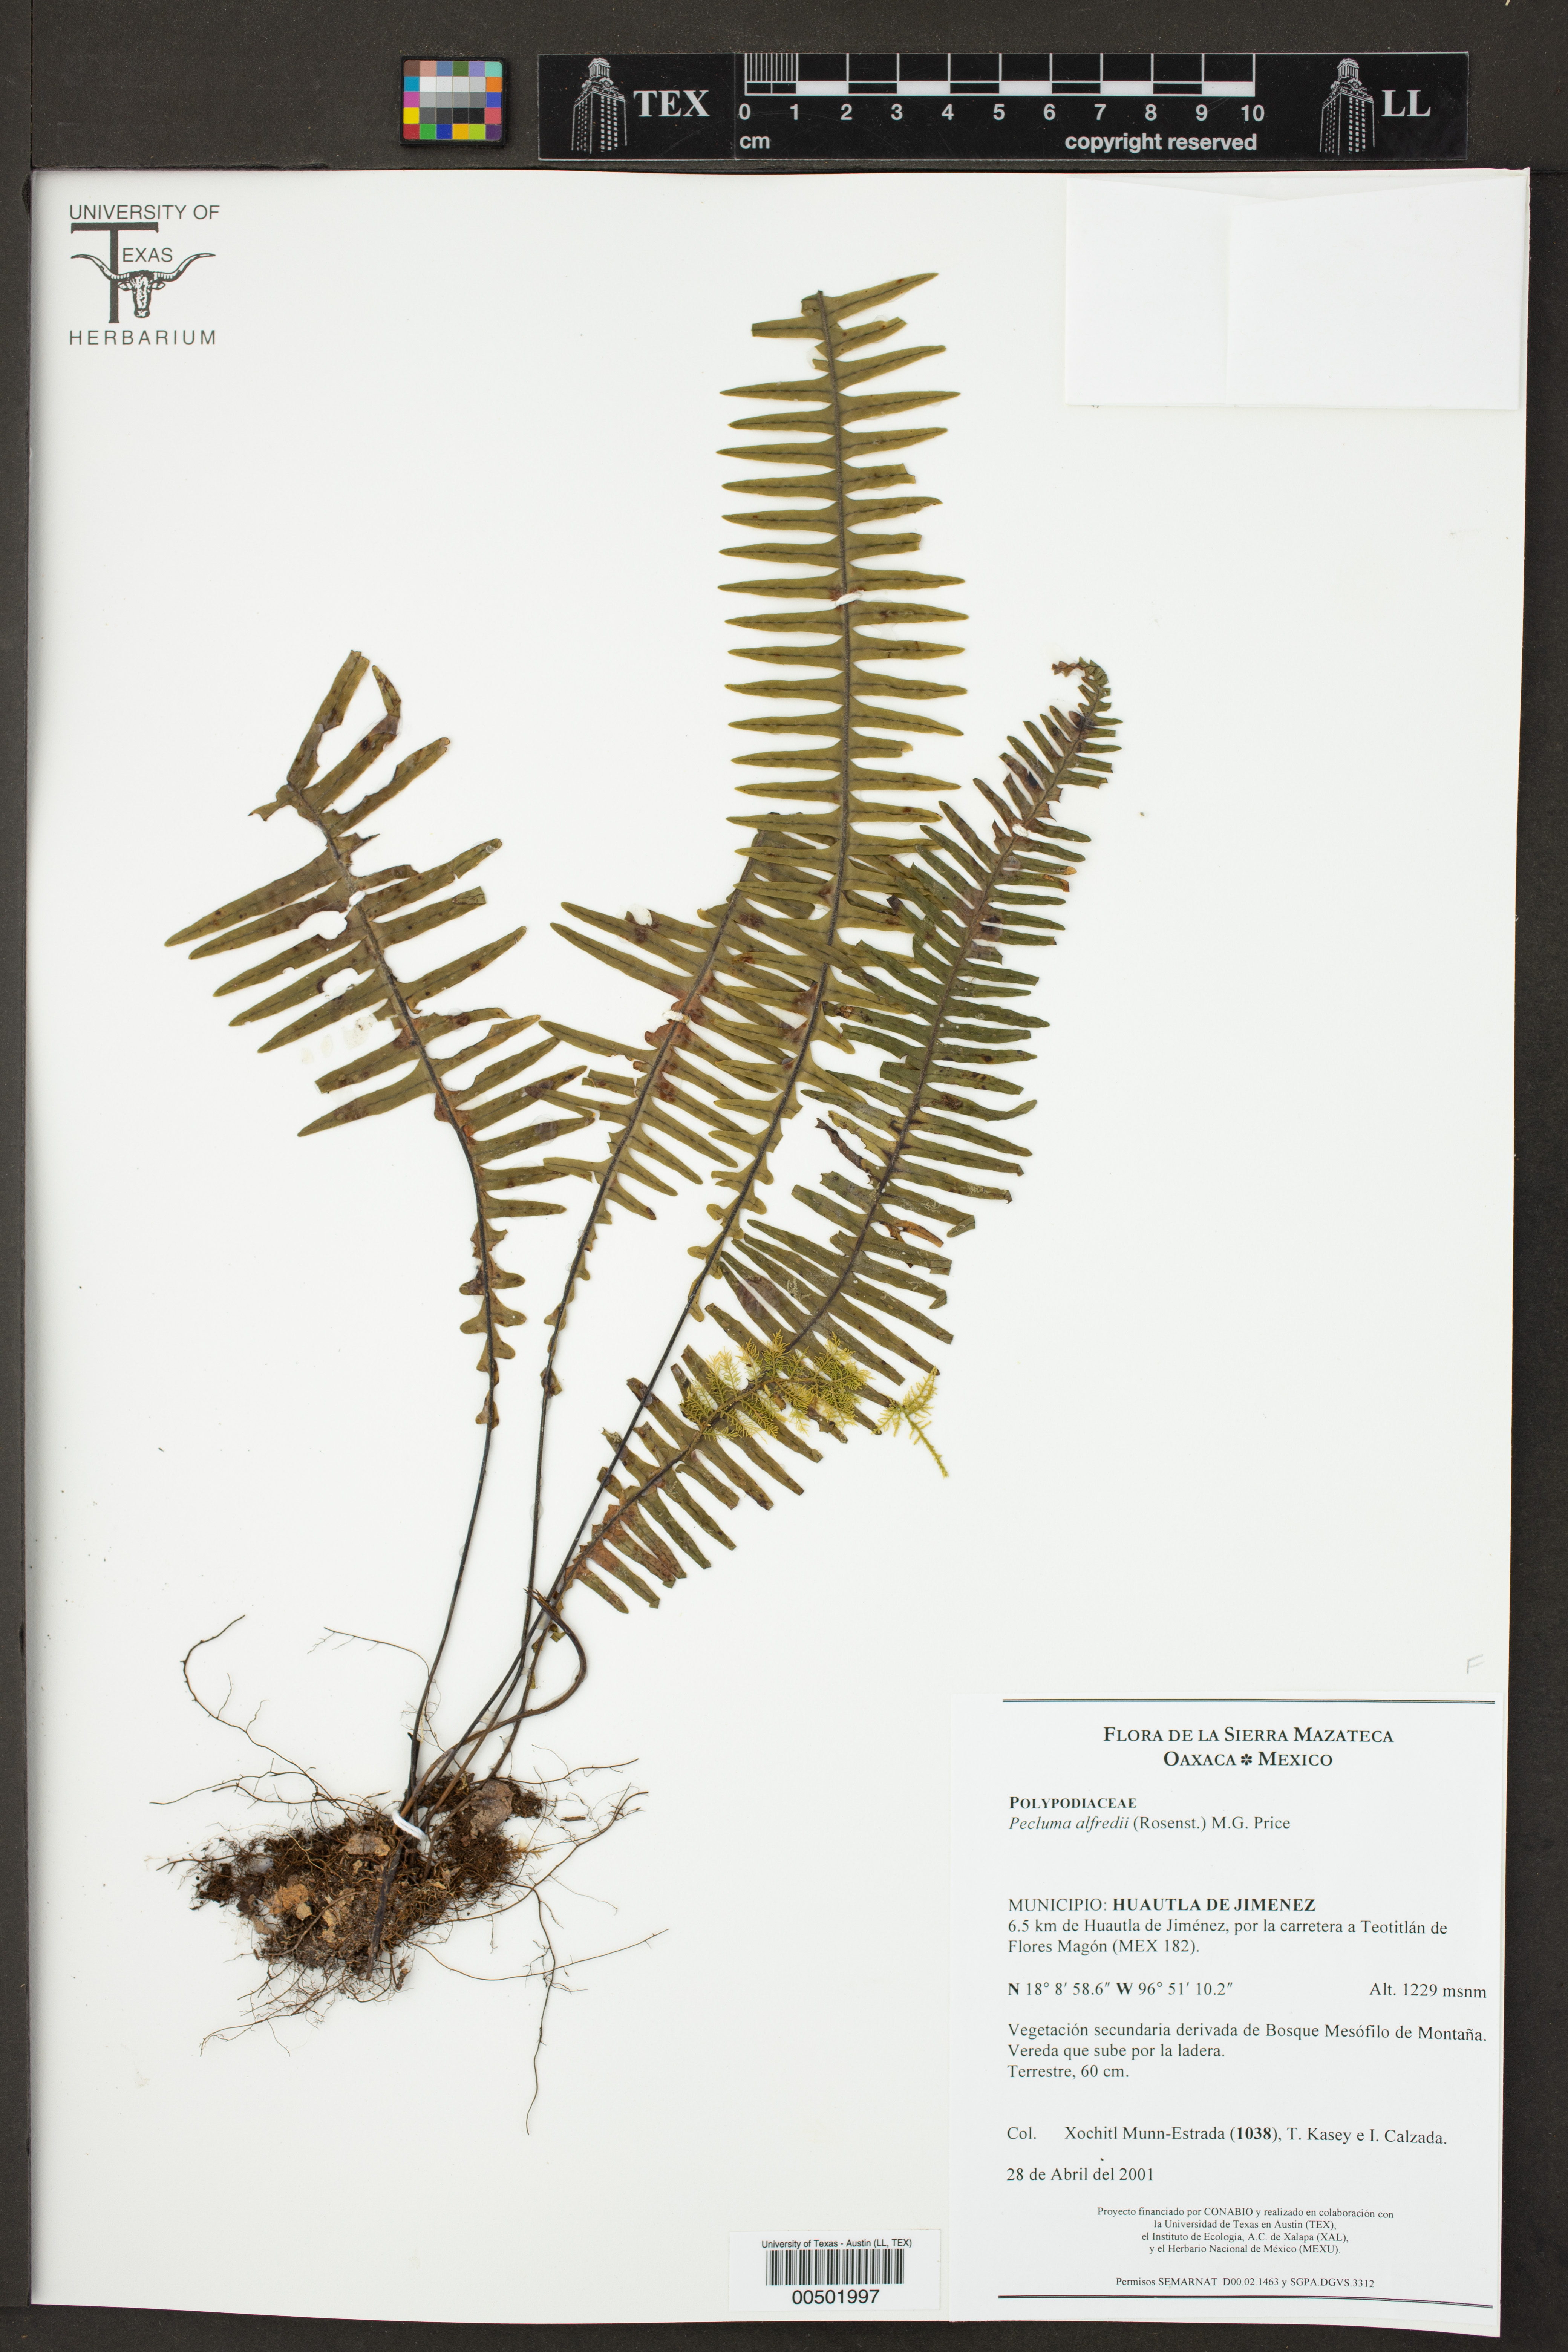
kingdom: Plantae
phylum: Tracheophyta
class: Polypodiopsida
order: Polypodiales
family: Polypodiaceae
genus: Pecluma
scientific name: Pecluma alfredii
